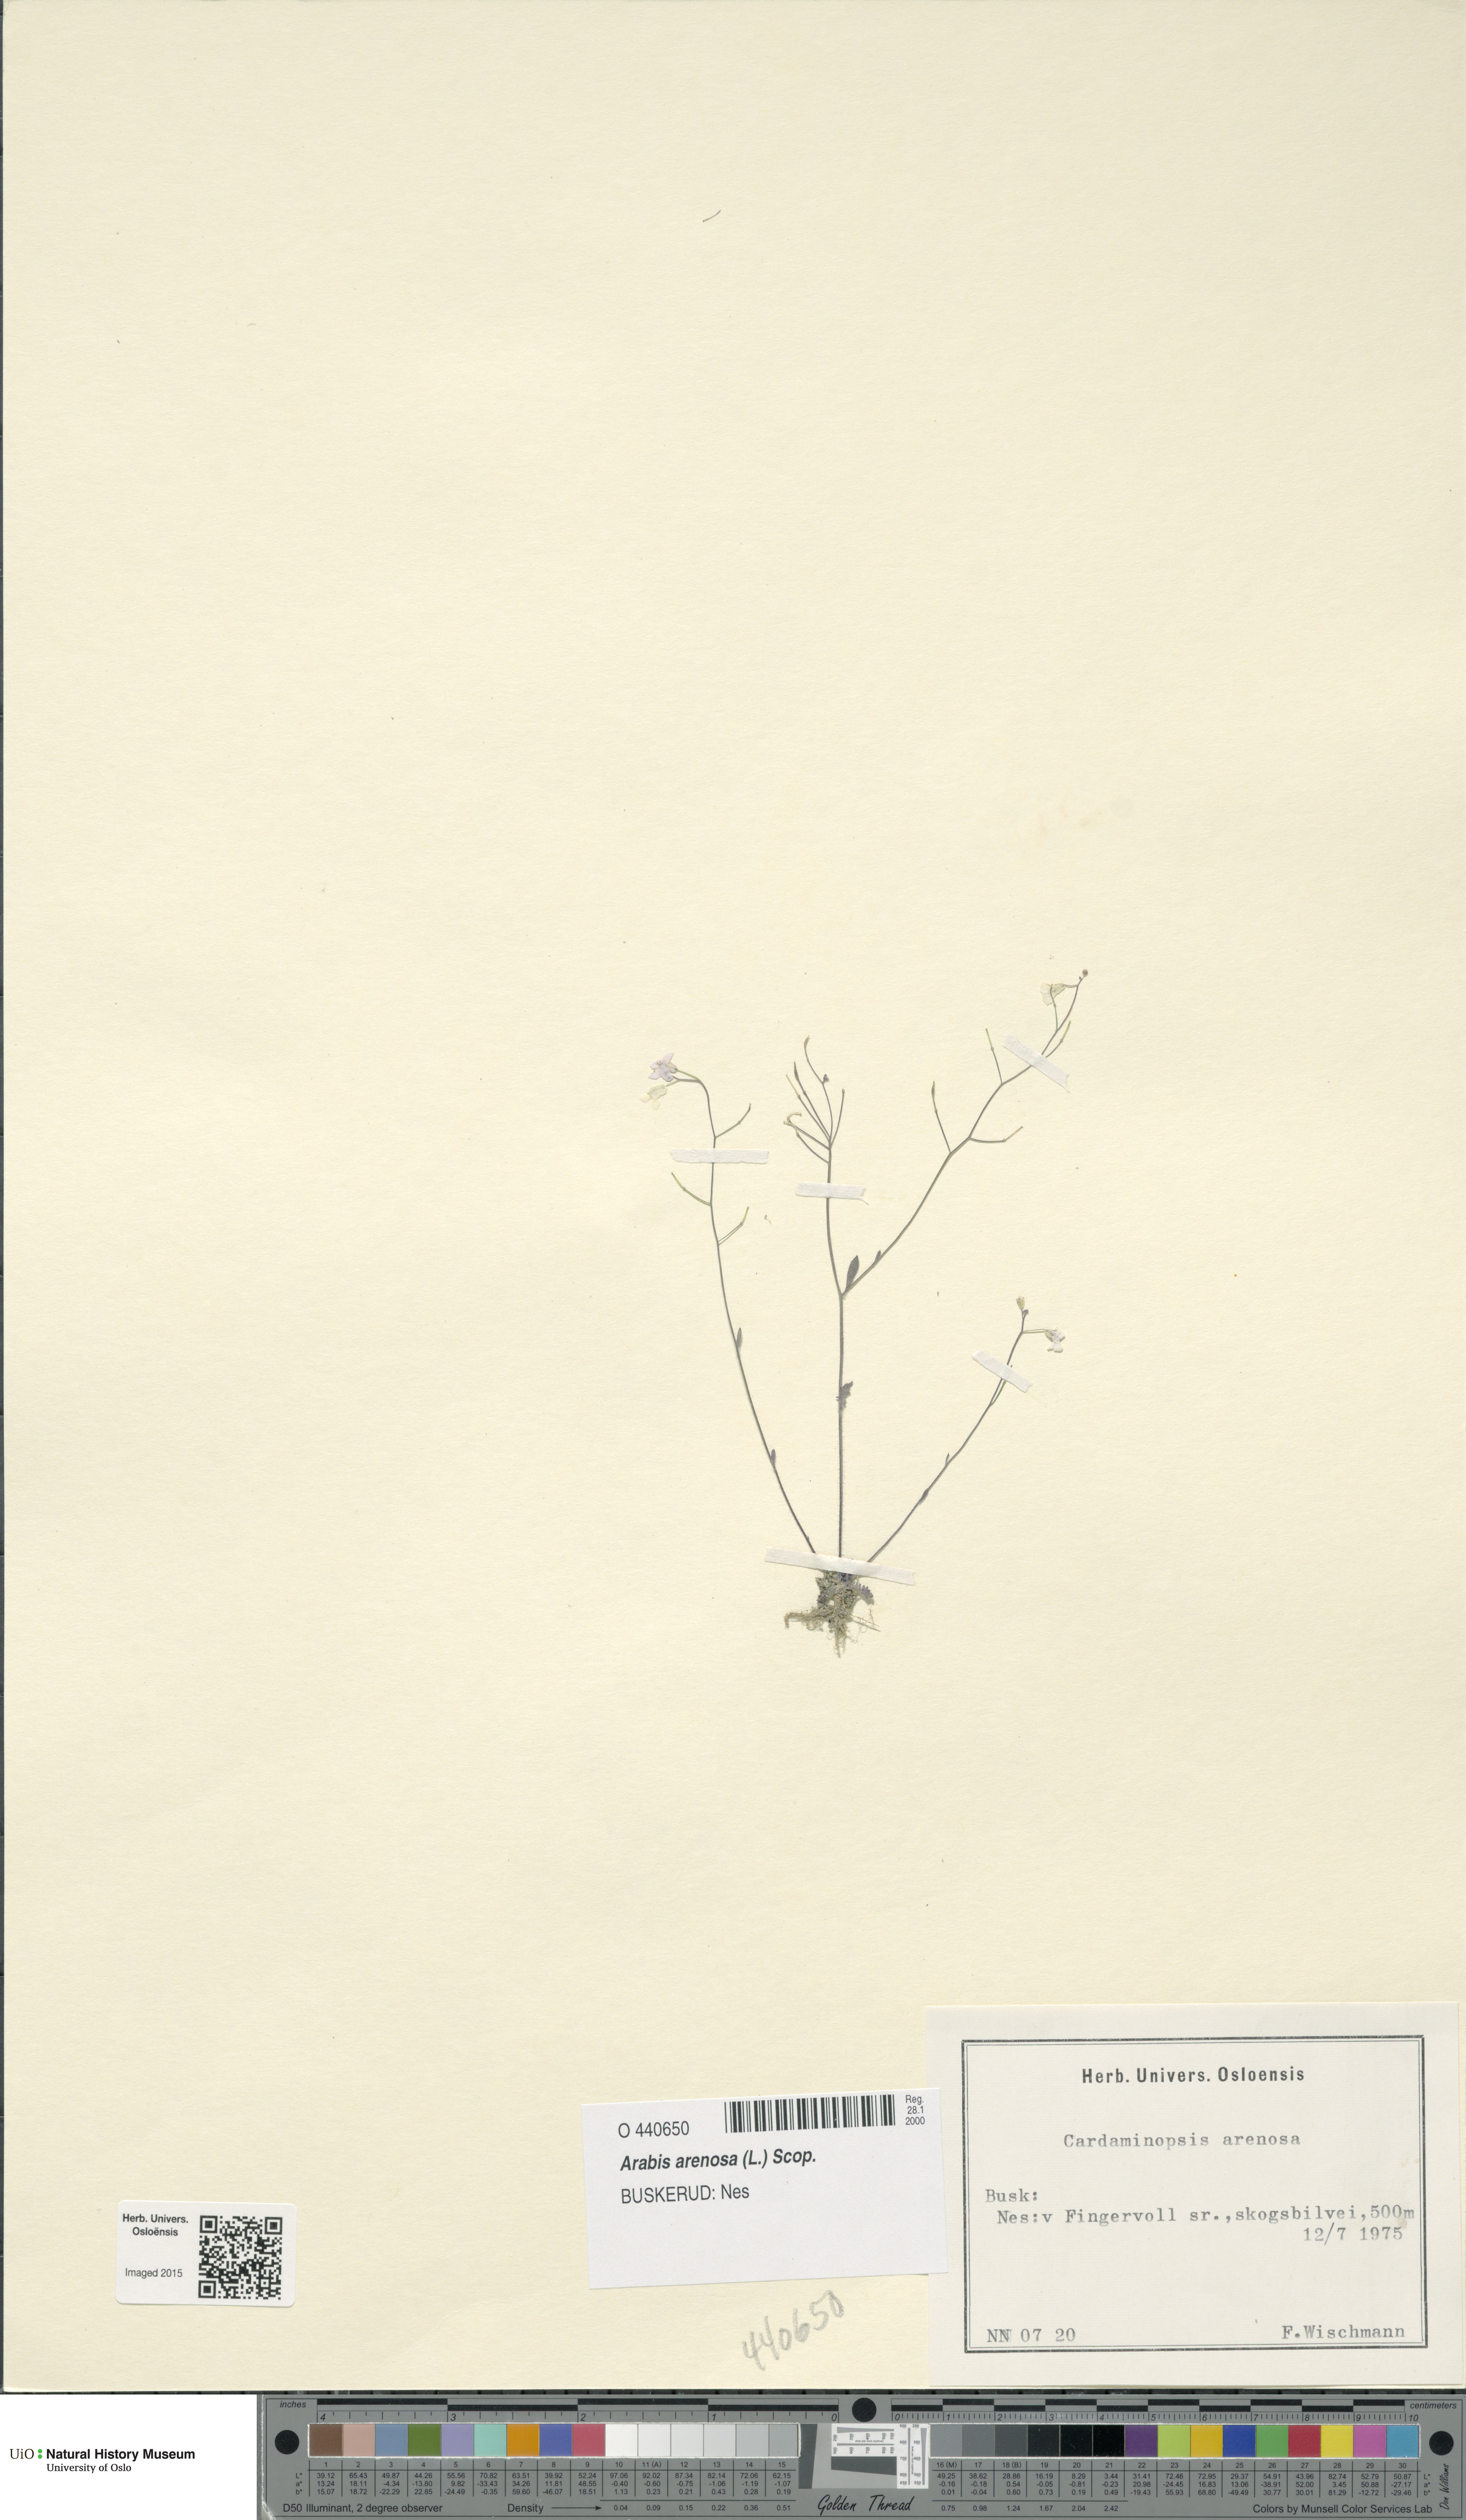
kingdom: Plantae
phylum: Tracheophyta
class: Magnoliopsida
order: Brassicales
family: Brassicaceae
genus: Arabidopsis
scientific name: Arabidopsis arenosa
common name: Sand rock-cress
